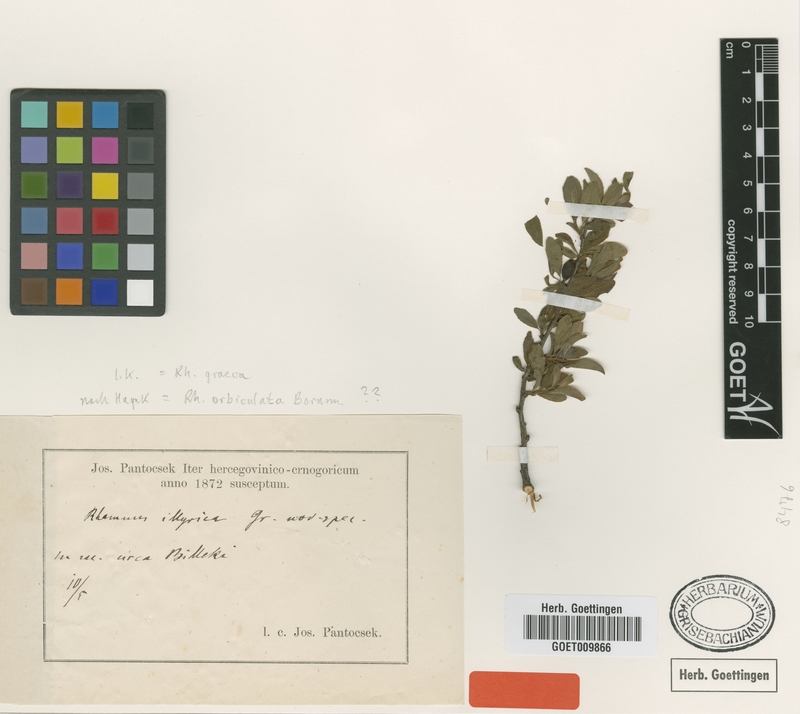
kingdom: Plantae
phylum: Tracheophyta
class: Magnoliopsida
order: Rosales
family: Rhamnaceae
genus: Rhamnus
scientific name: Rhamnus
